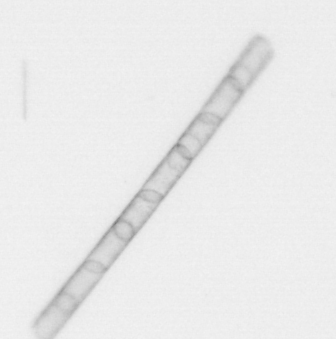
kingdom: Chromista
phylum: Ochrophyta
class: Bacillariophyceae
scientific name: Bacillariophyceae
